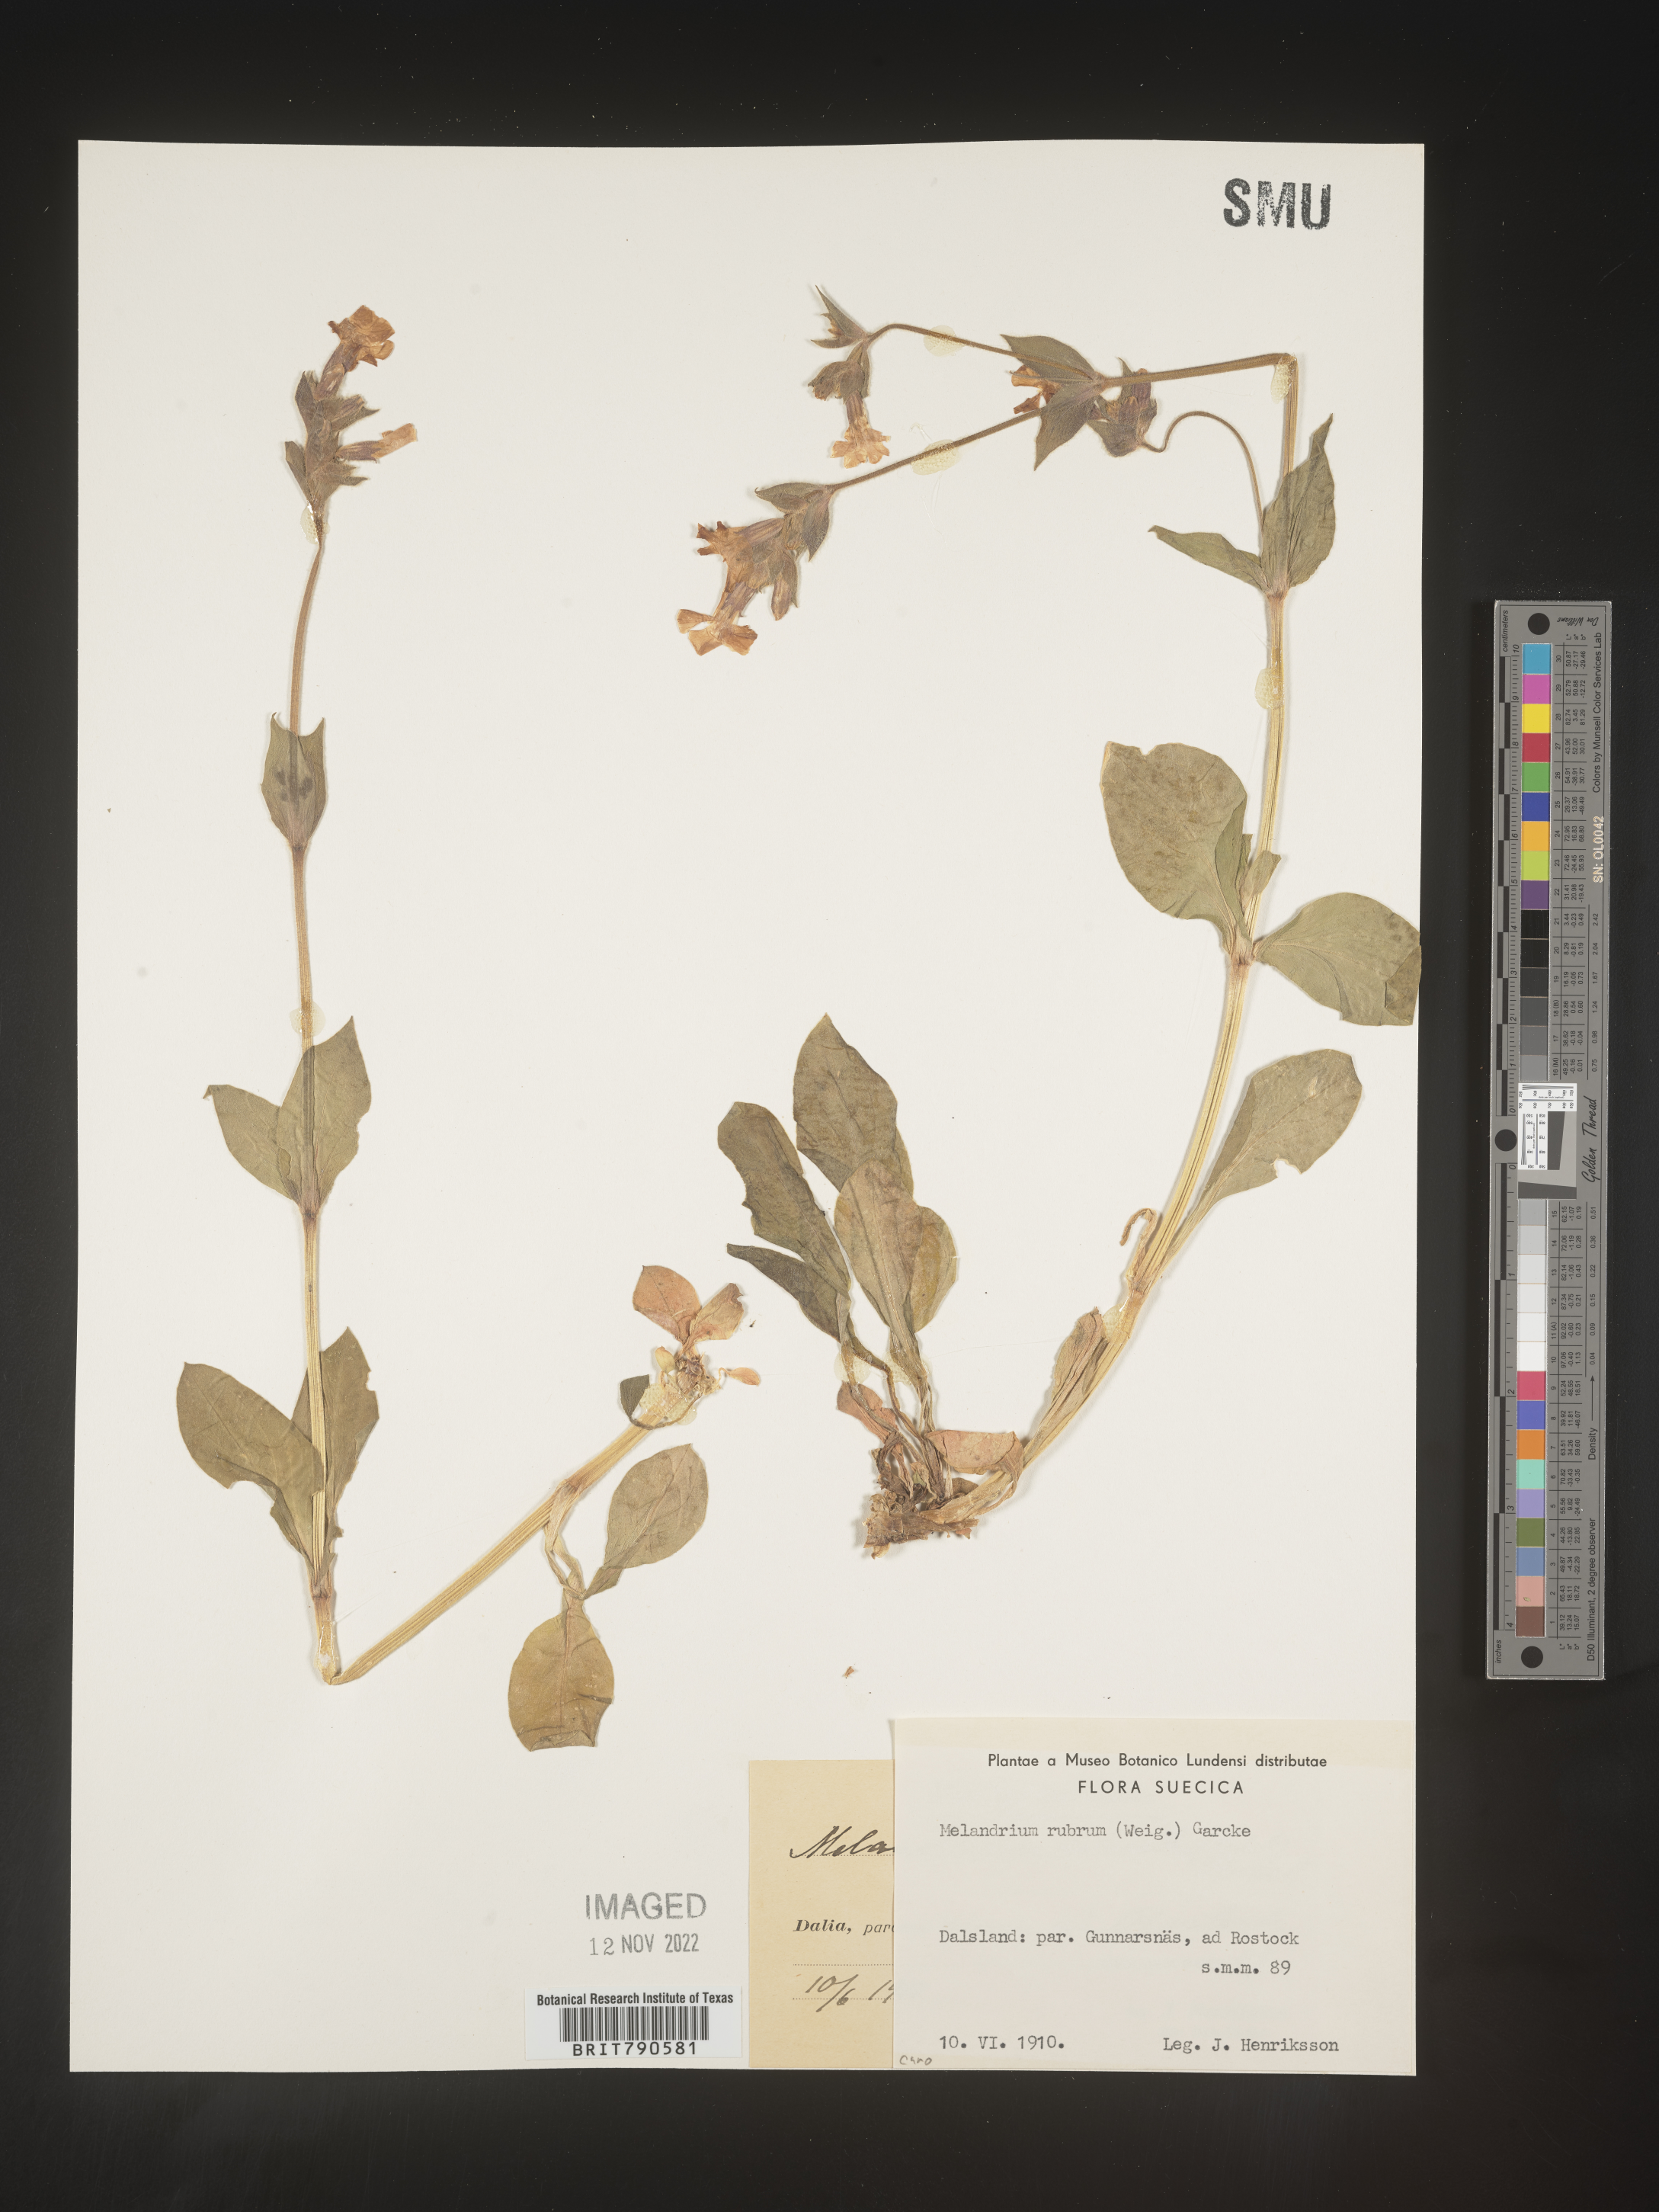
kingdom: Plantae
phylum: Tracheophyta
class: Magnoliopsida
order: Caryophyllales
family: Caryophyllaceae
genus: Silene
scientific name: Silene
